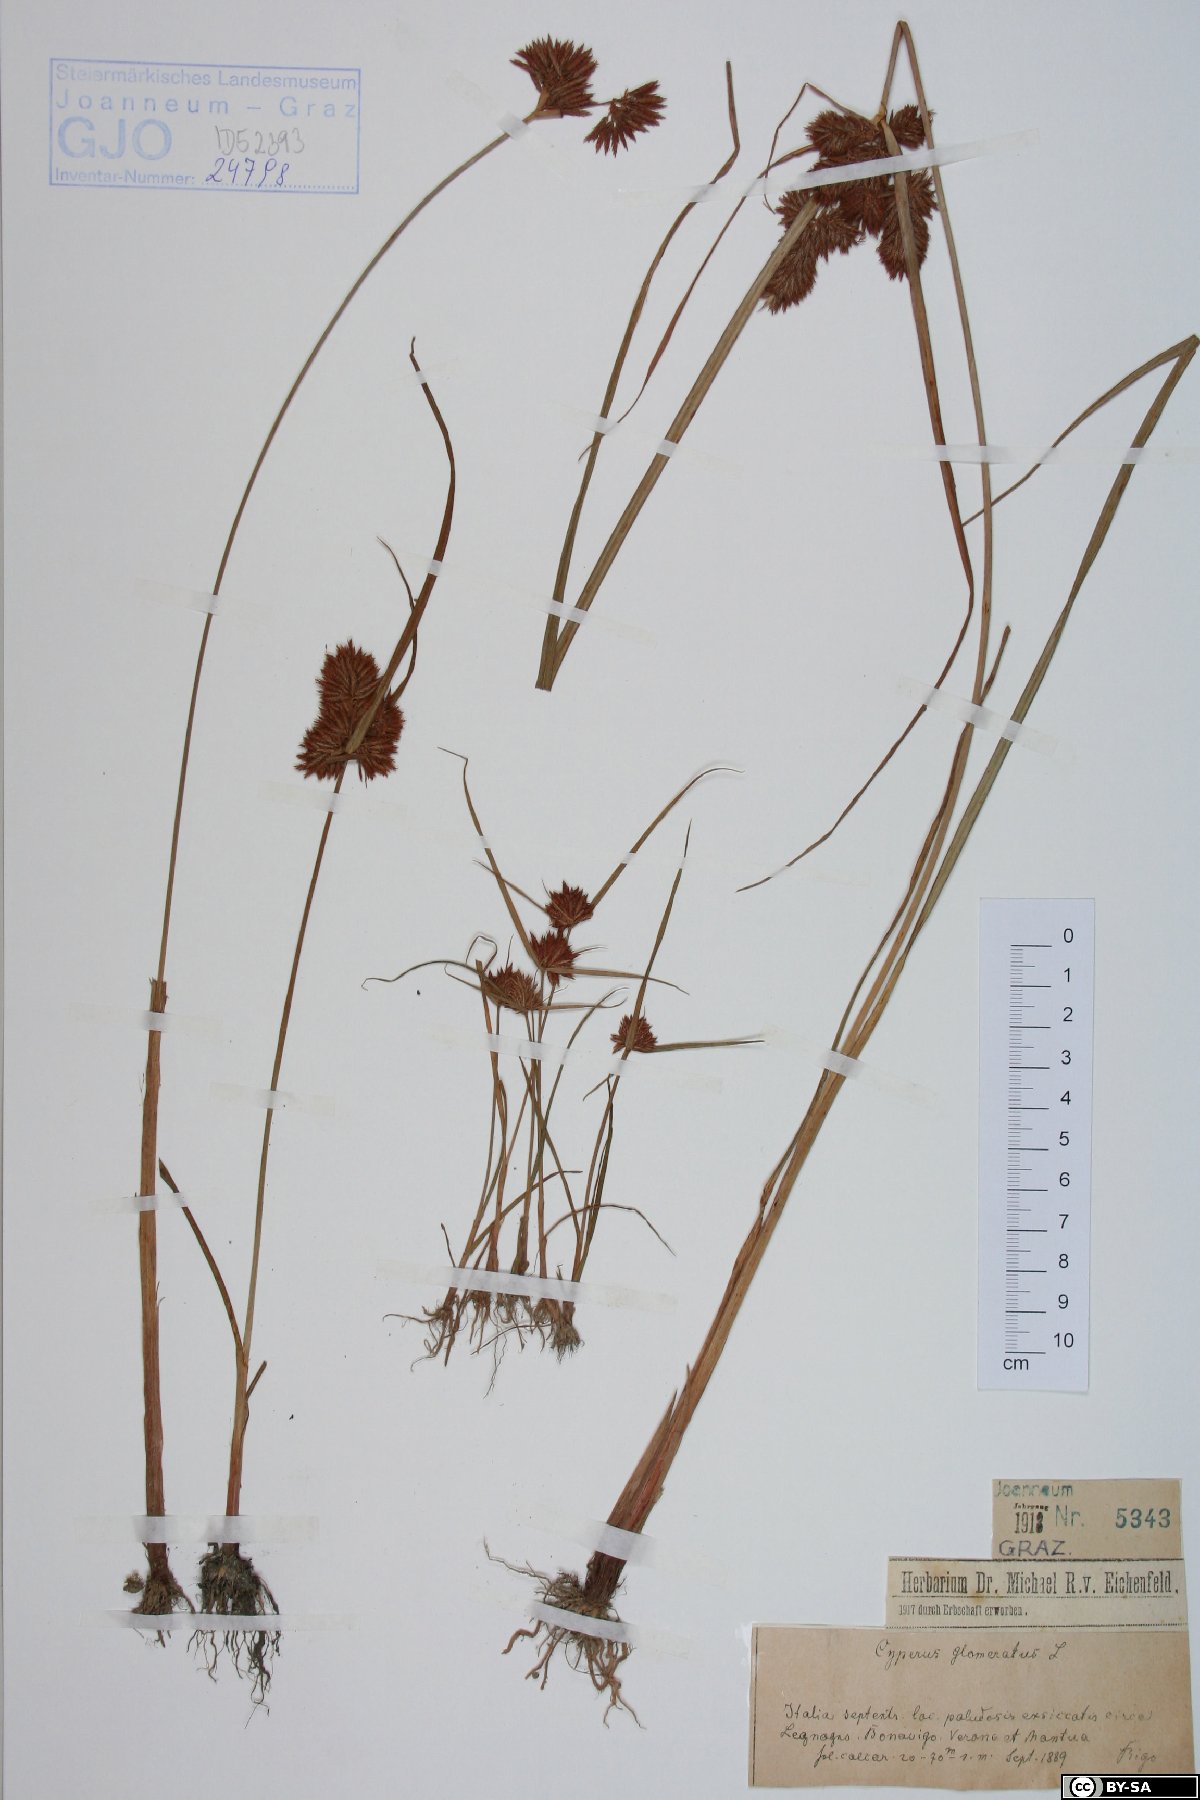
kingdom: Plantae
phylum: Tracheophyta
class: Liliopsida
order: Poales
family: Cyperaceae
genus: Cyperus
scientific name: Cyperus glomeratus
